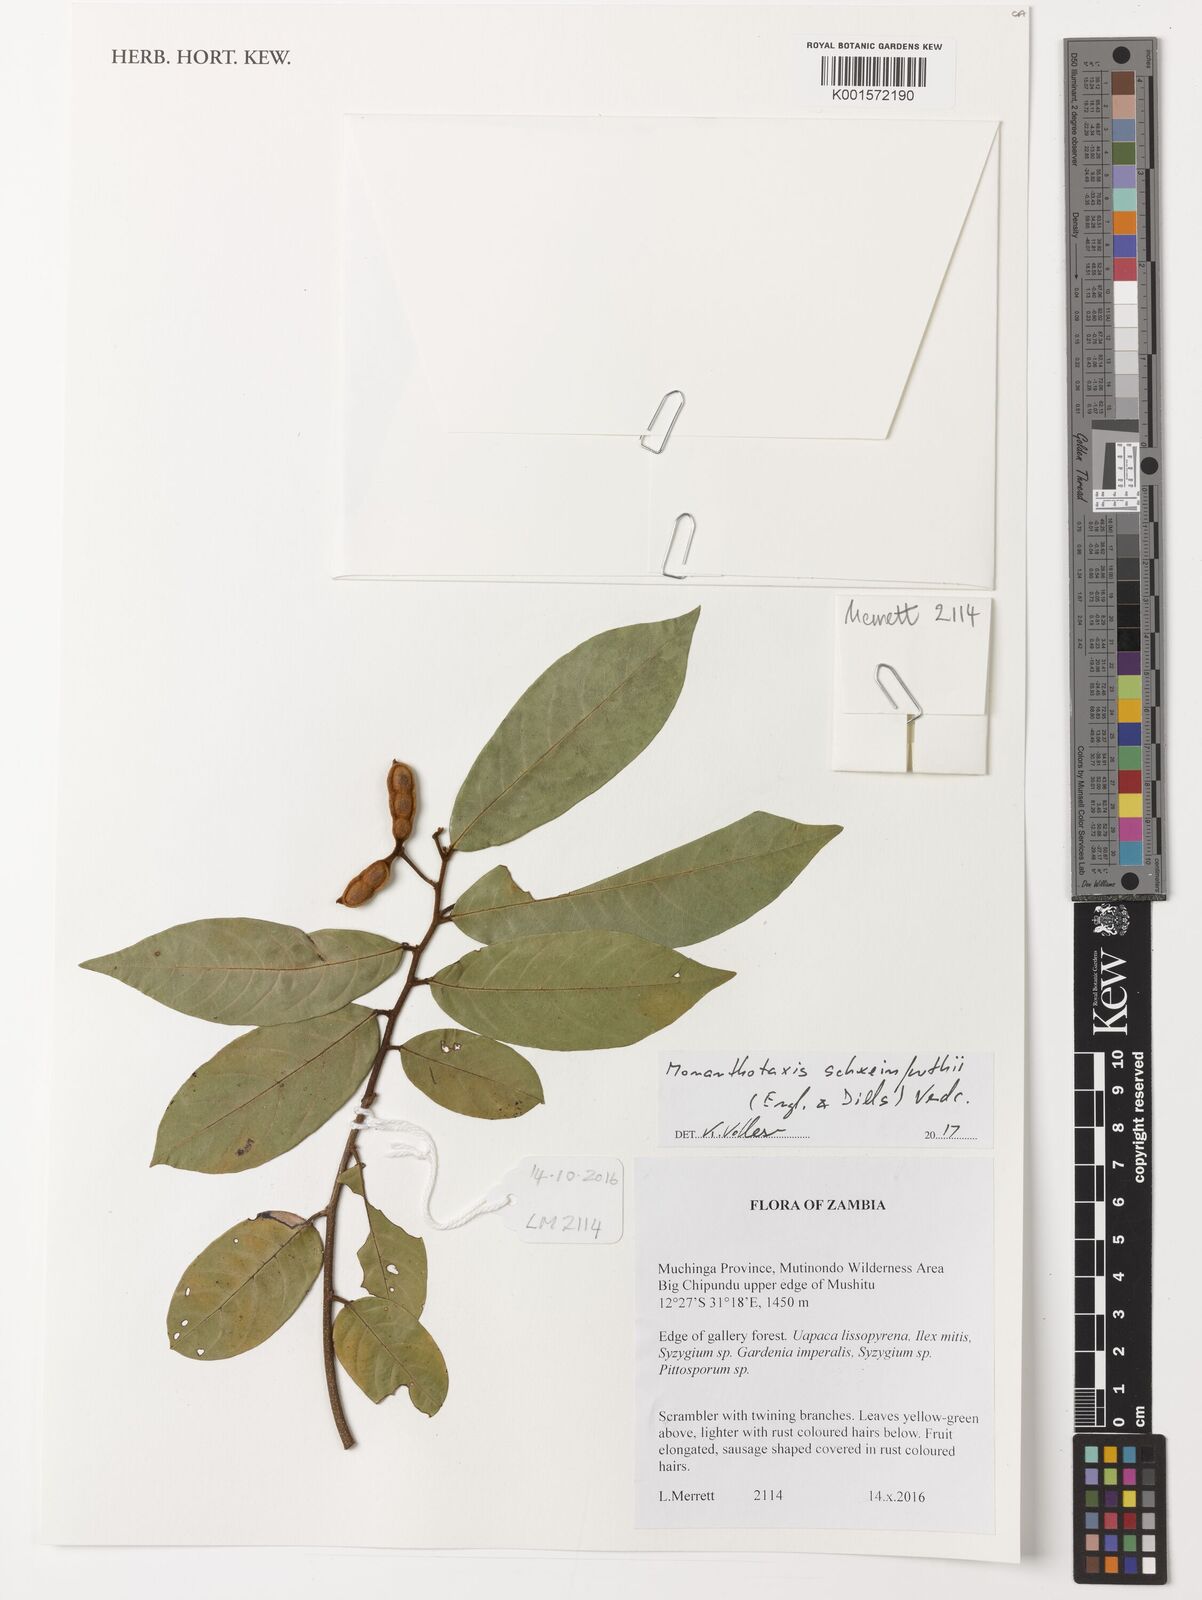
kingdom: Plantae
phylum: Tracheophyta
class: Magnoliopsida
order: Magnoliales
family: Annonaceae
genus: Monanthotaxis
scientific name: Monanthotaxis schweinfurthii
